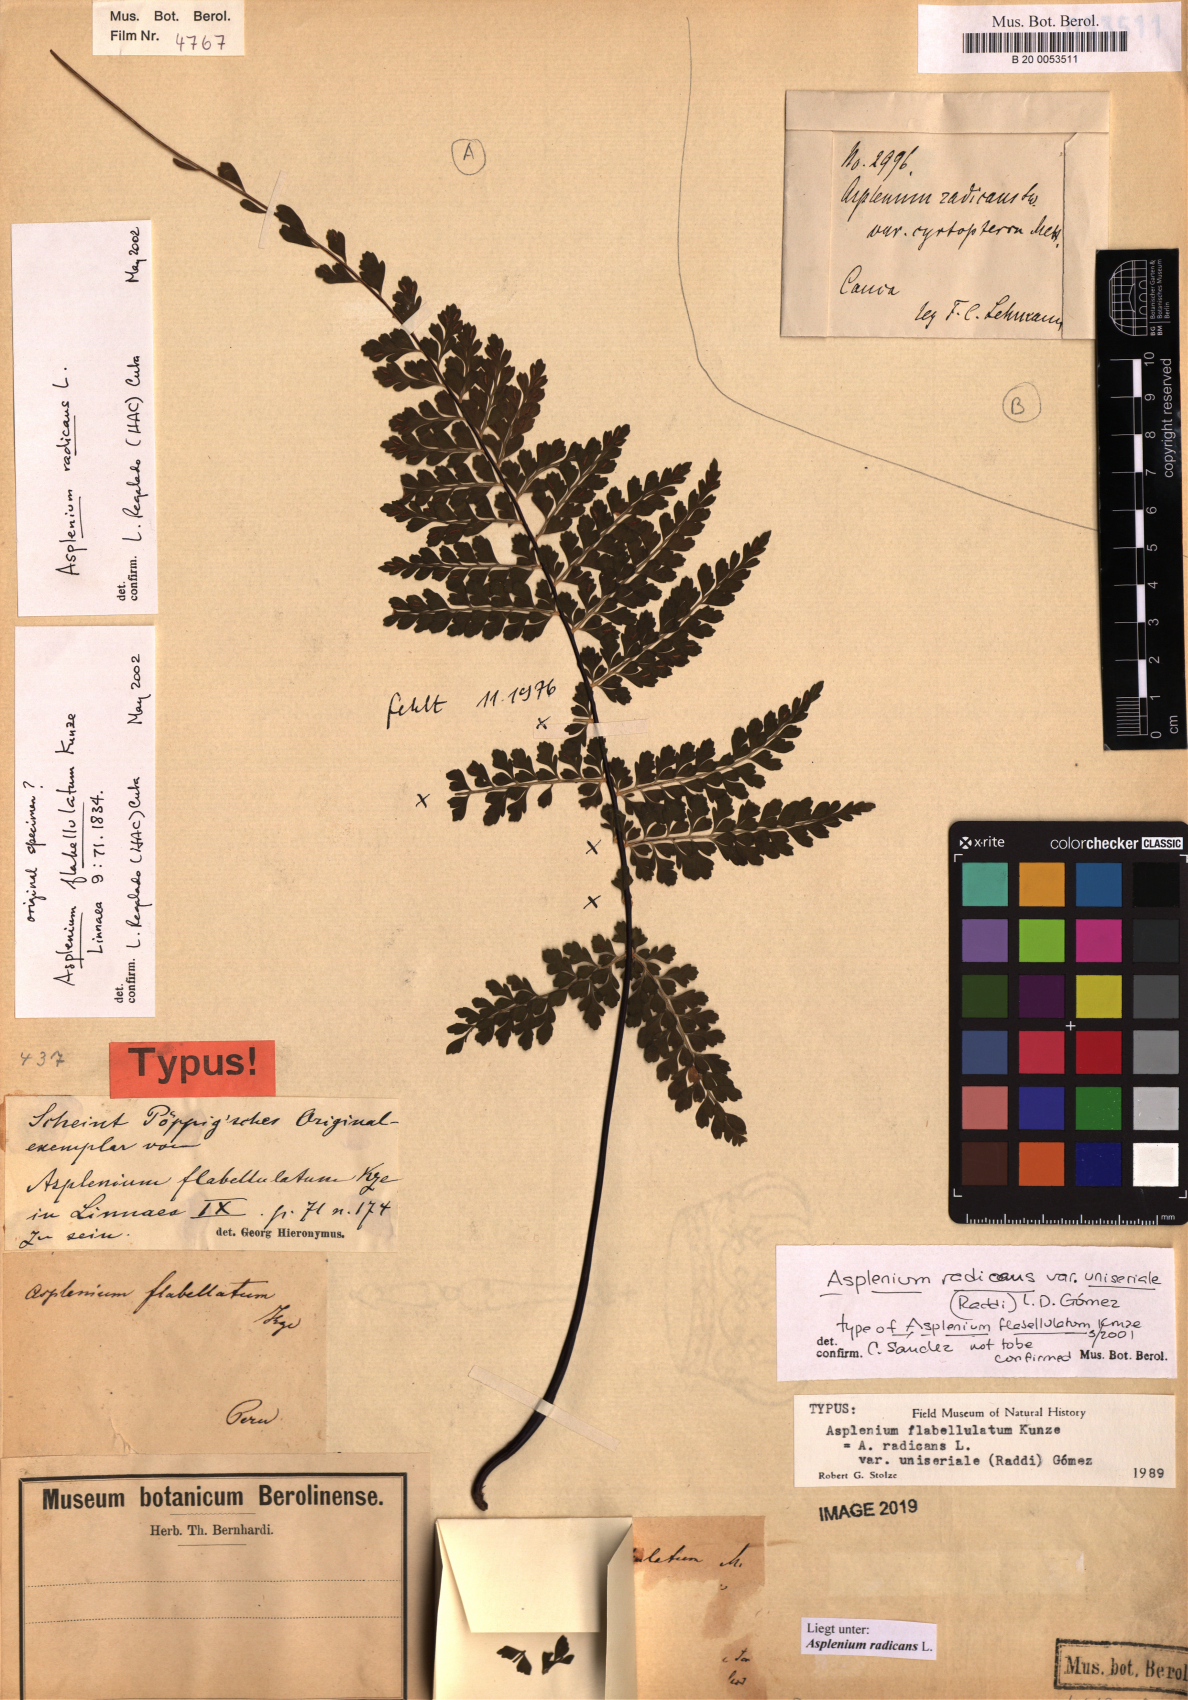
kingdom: Plantae
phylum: Tracheophyta
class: Polypodiopsida
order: Polypodiales
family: Aspleniaceae
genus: Asplenium
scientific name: Asplenium flabellulatum
